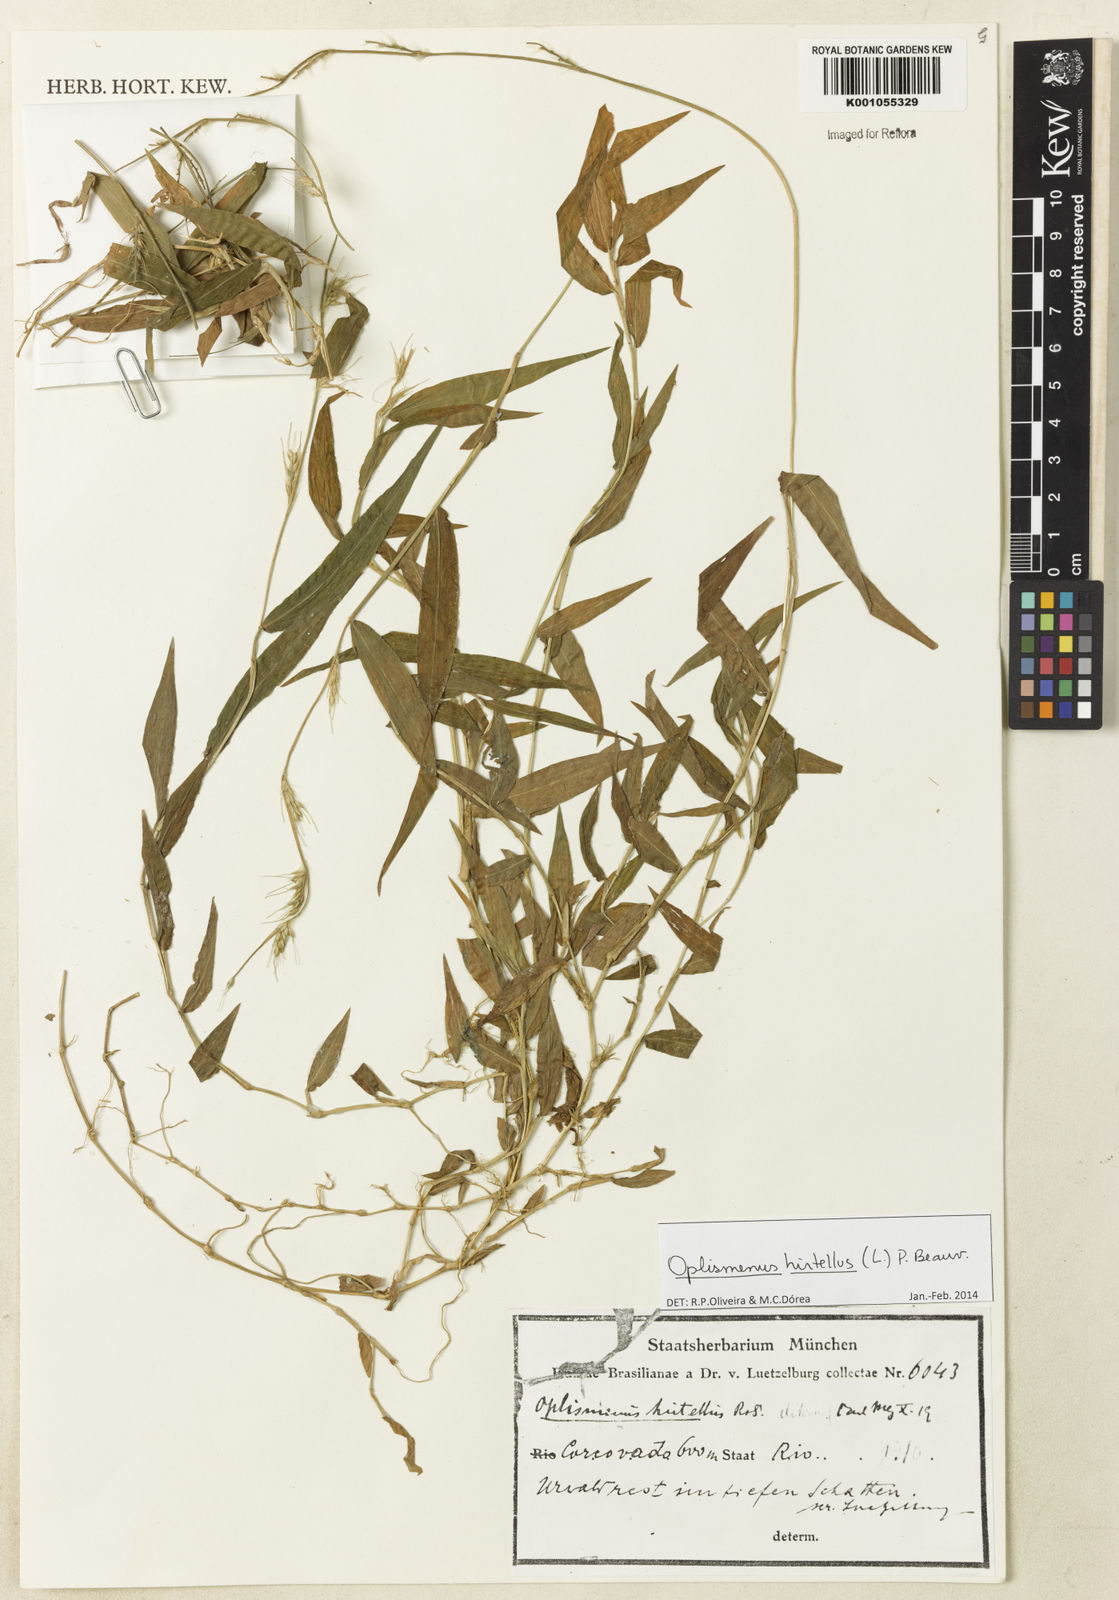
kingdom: Plantae
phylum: Tracheophyta
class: Liliopsida
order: Poales
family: Poaceae
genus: Oplismenus
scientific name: Oplismenus hirtellus
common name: Basketgrass
